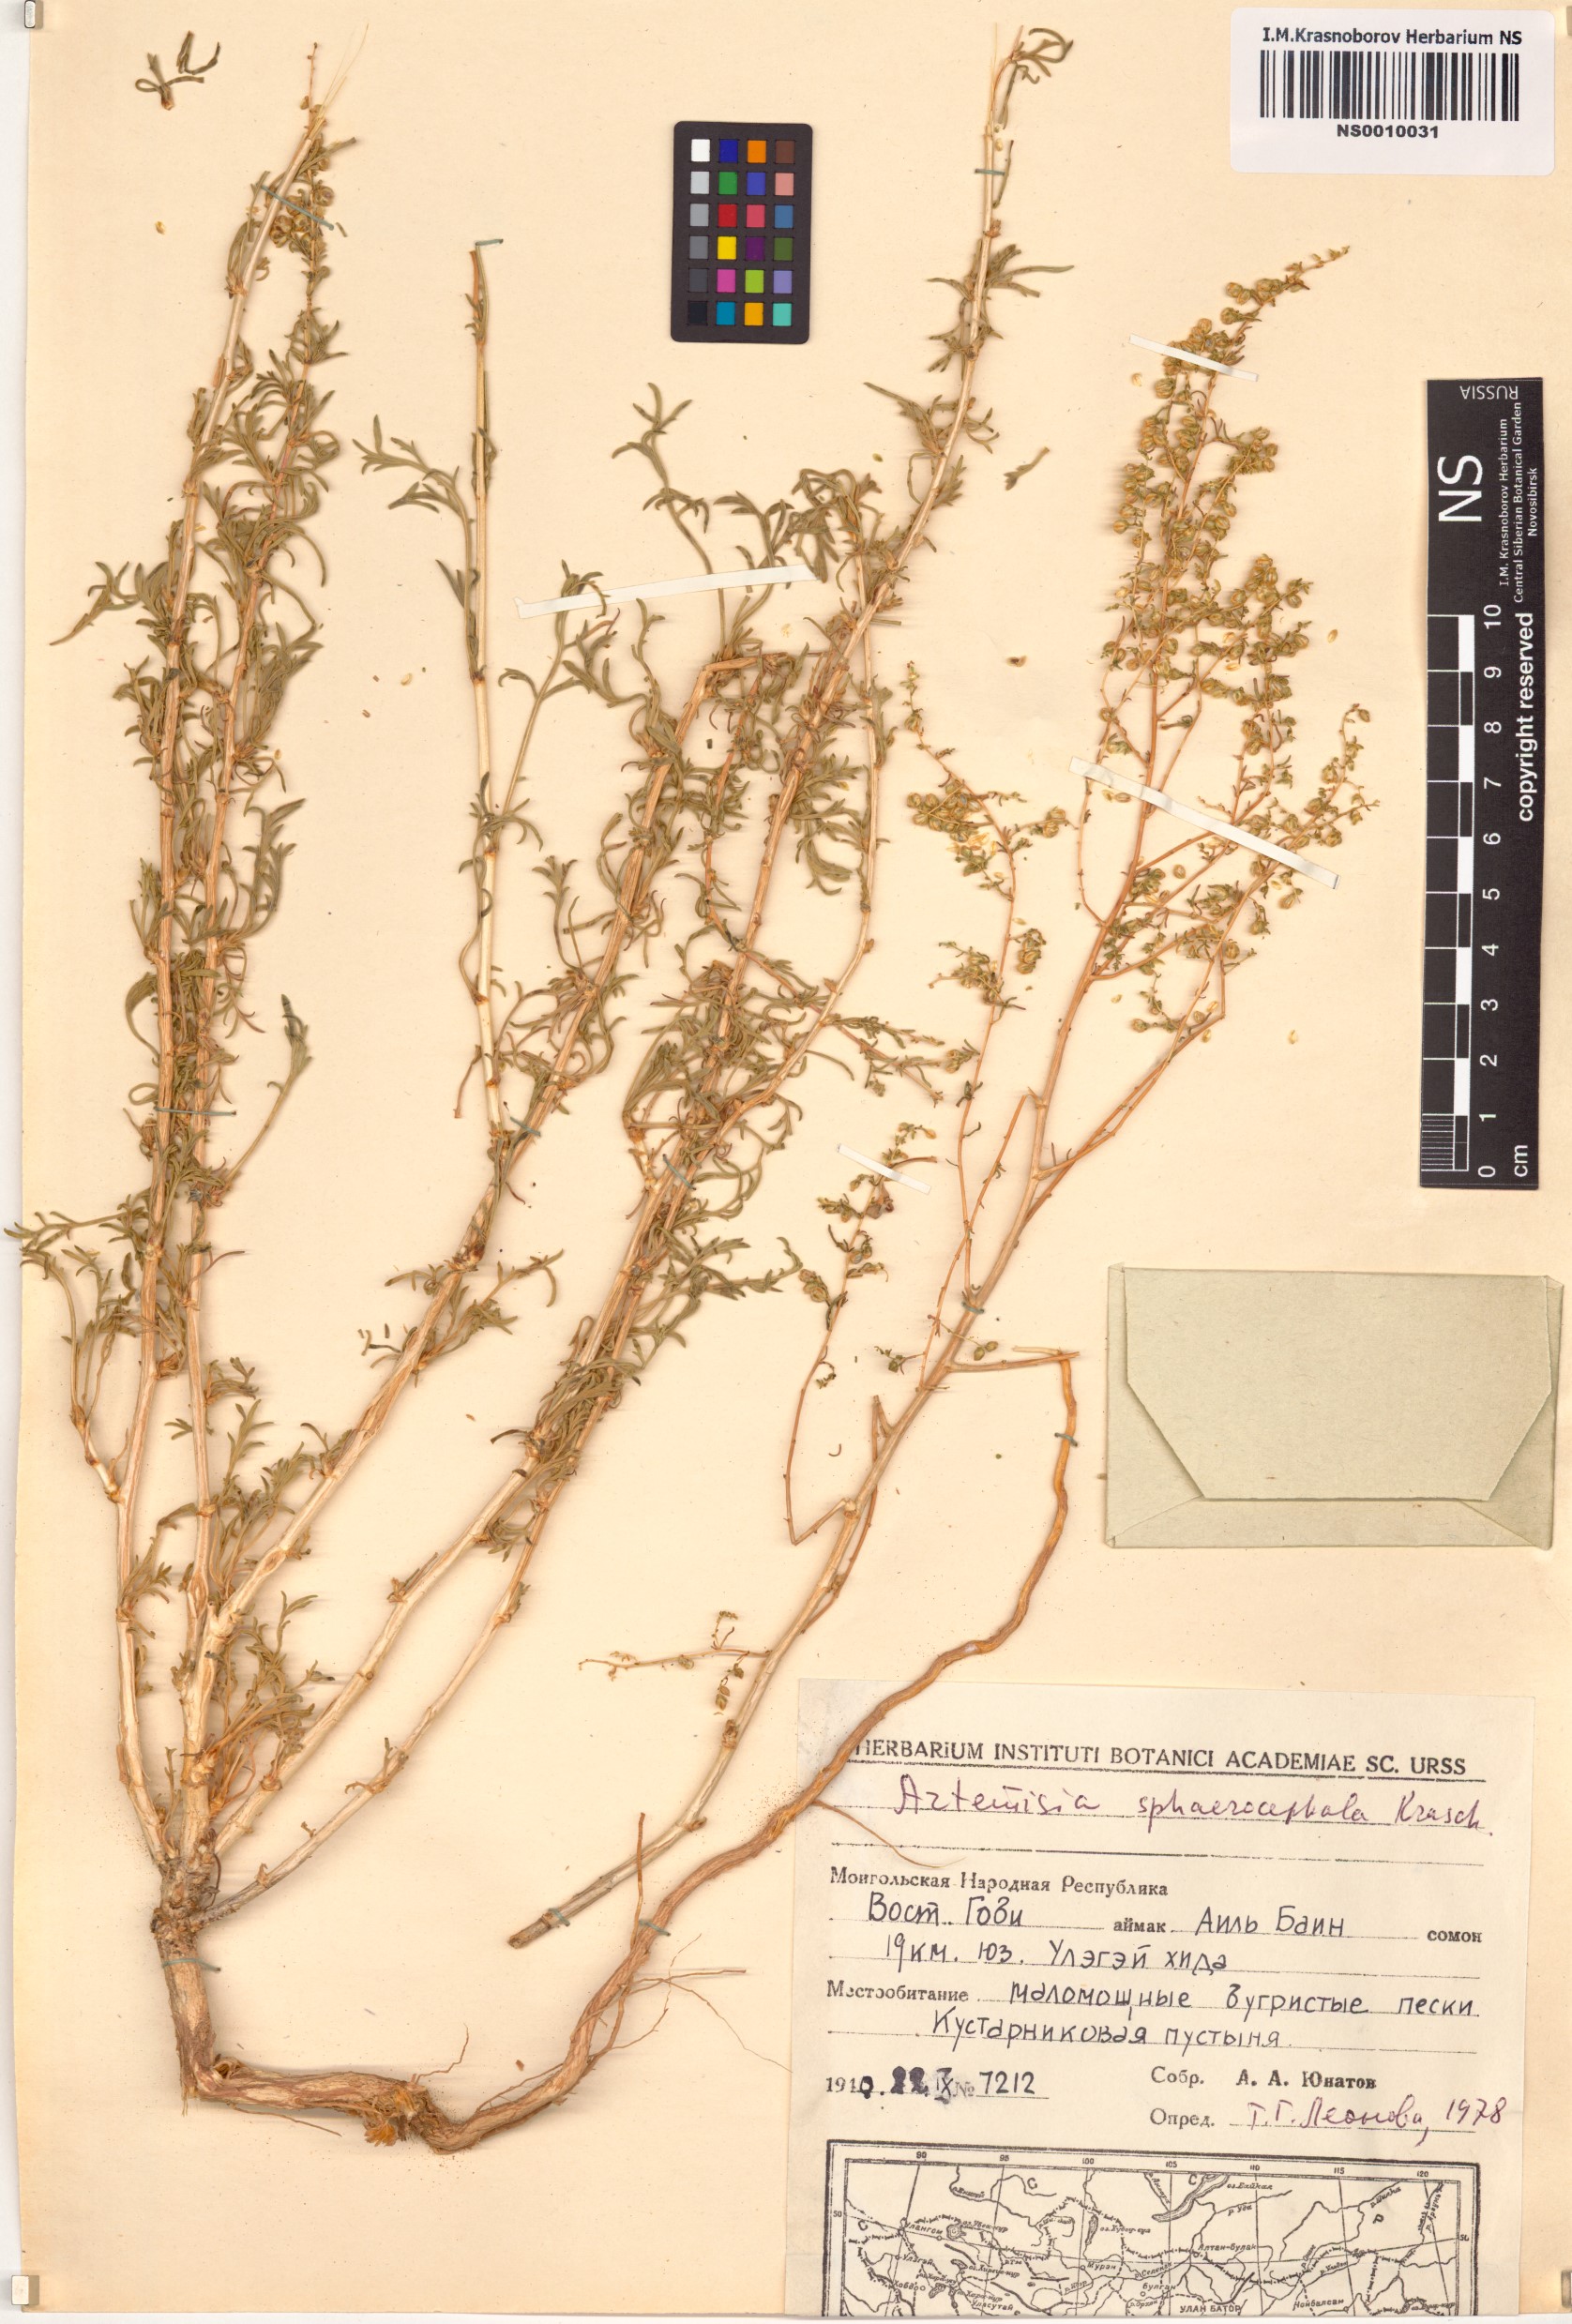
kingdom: Plantae
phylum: Tracheophyta
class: Magnoliopsida
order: Asterales
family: Asteraceae
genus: Artemisia
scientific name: Artemisia sphaerocephala
